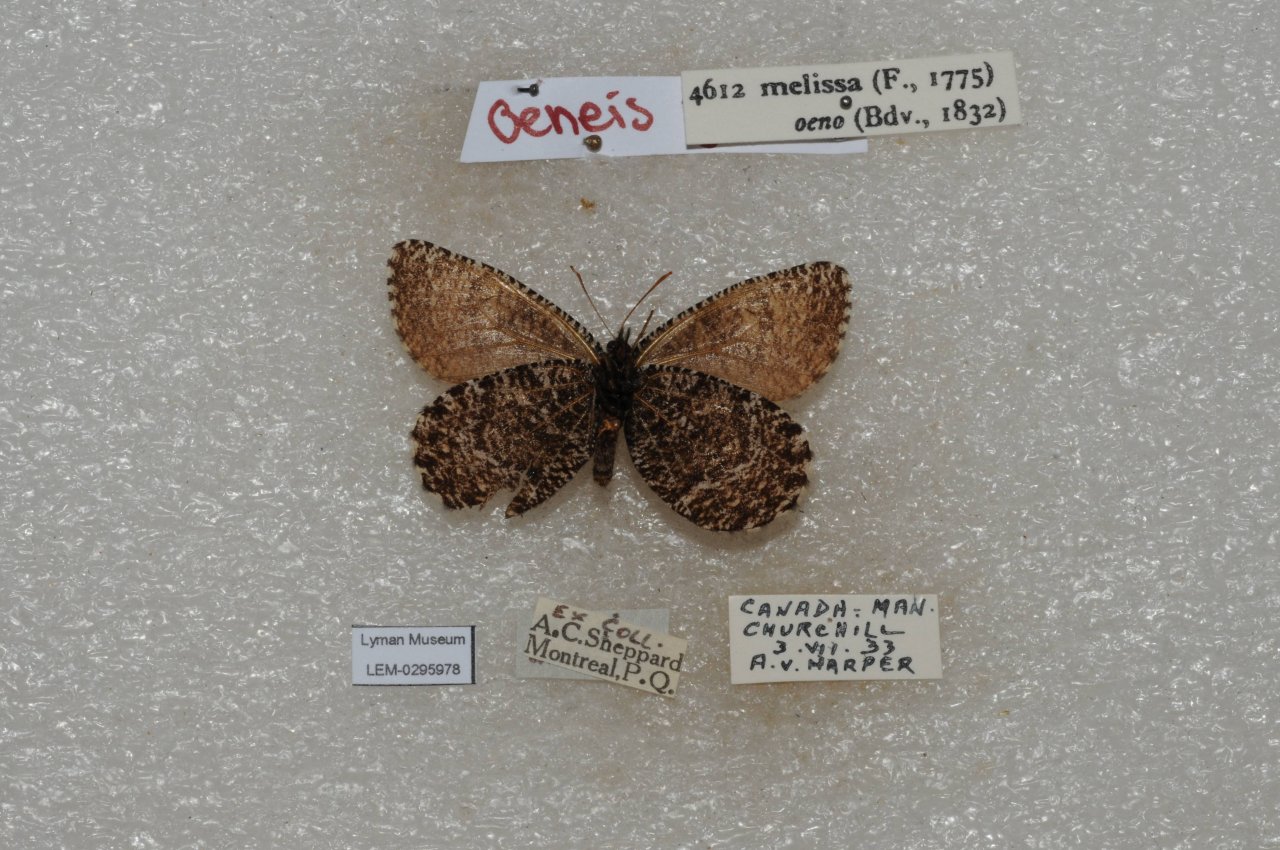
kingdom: Animalia
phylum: Arthropoda
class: Insecta
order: Lepidoptera
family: Nymphalidae
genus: Oeneis
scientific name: Oeneis melissa
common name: Melissa Arctic
